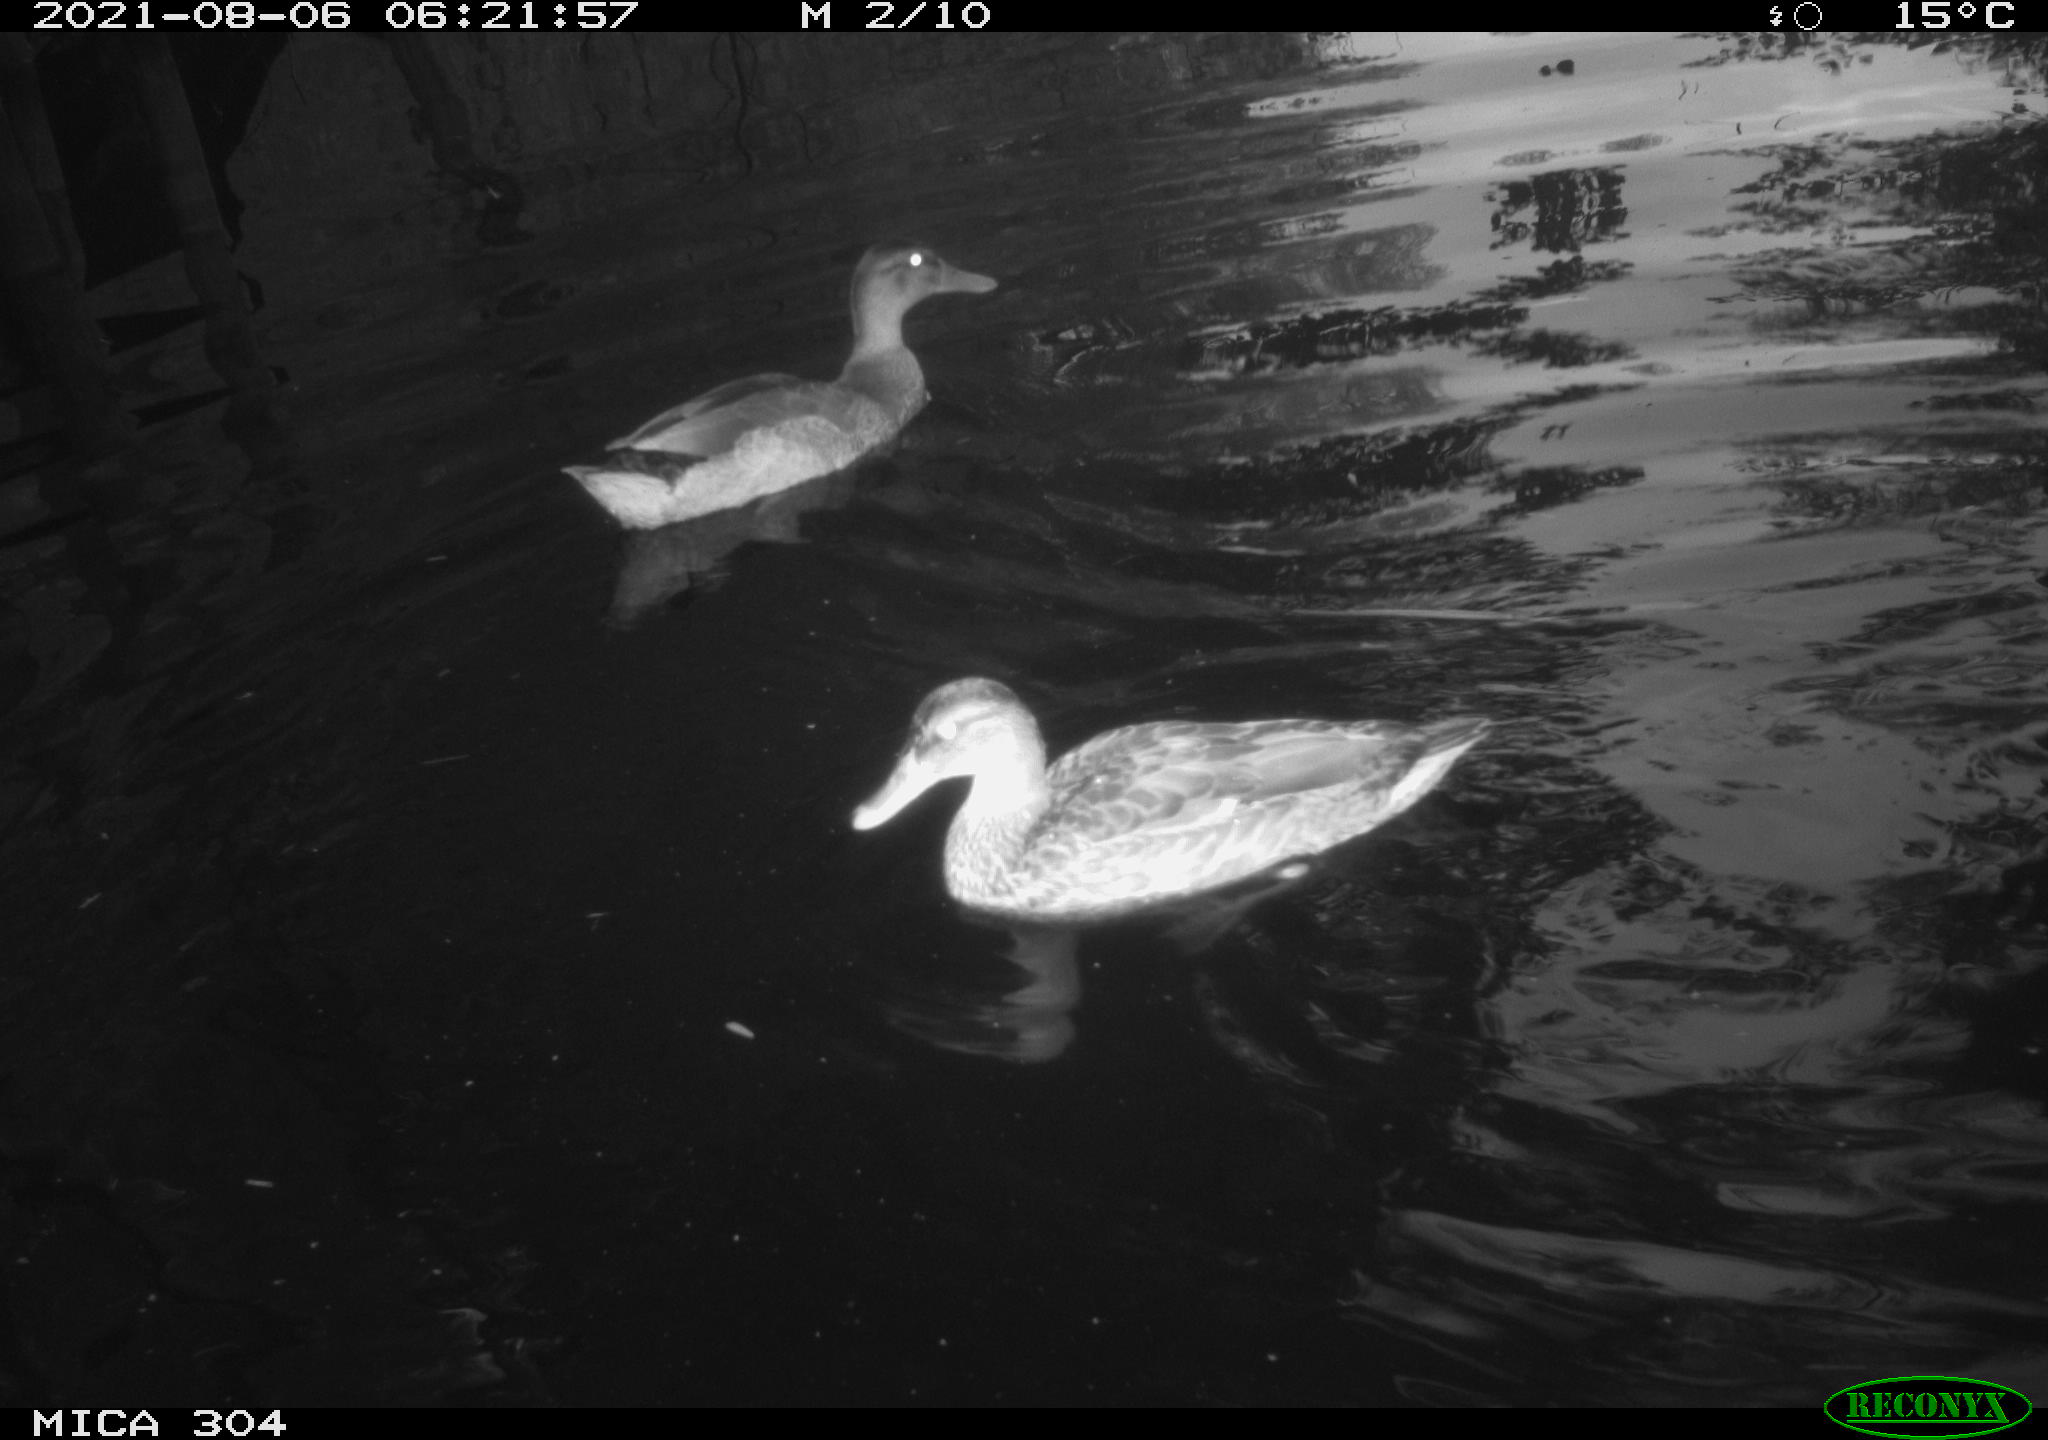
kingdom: Animalia
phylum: Chordata
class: Aves
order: Anseriformes
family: Anatidae
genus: Anas
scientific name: Anas platyrhynchos
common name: Mallard
